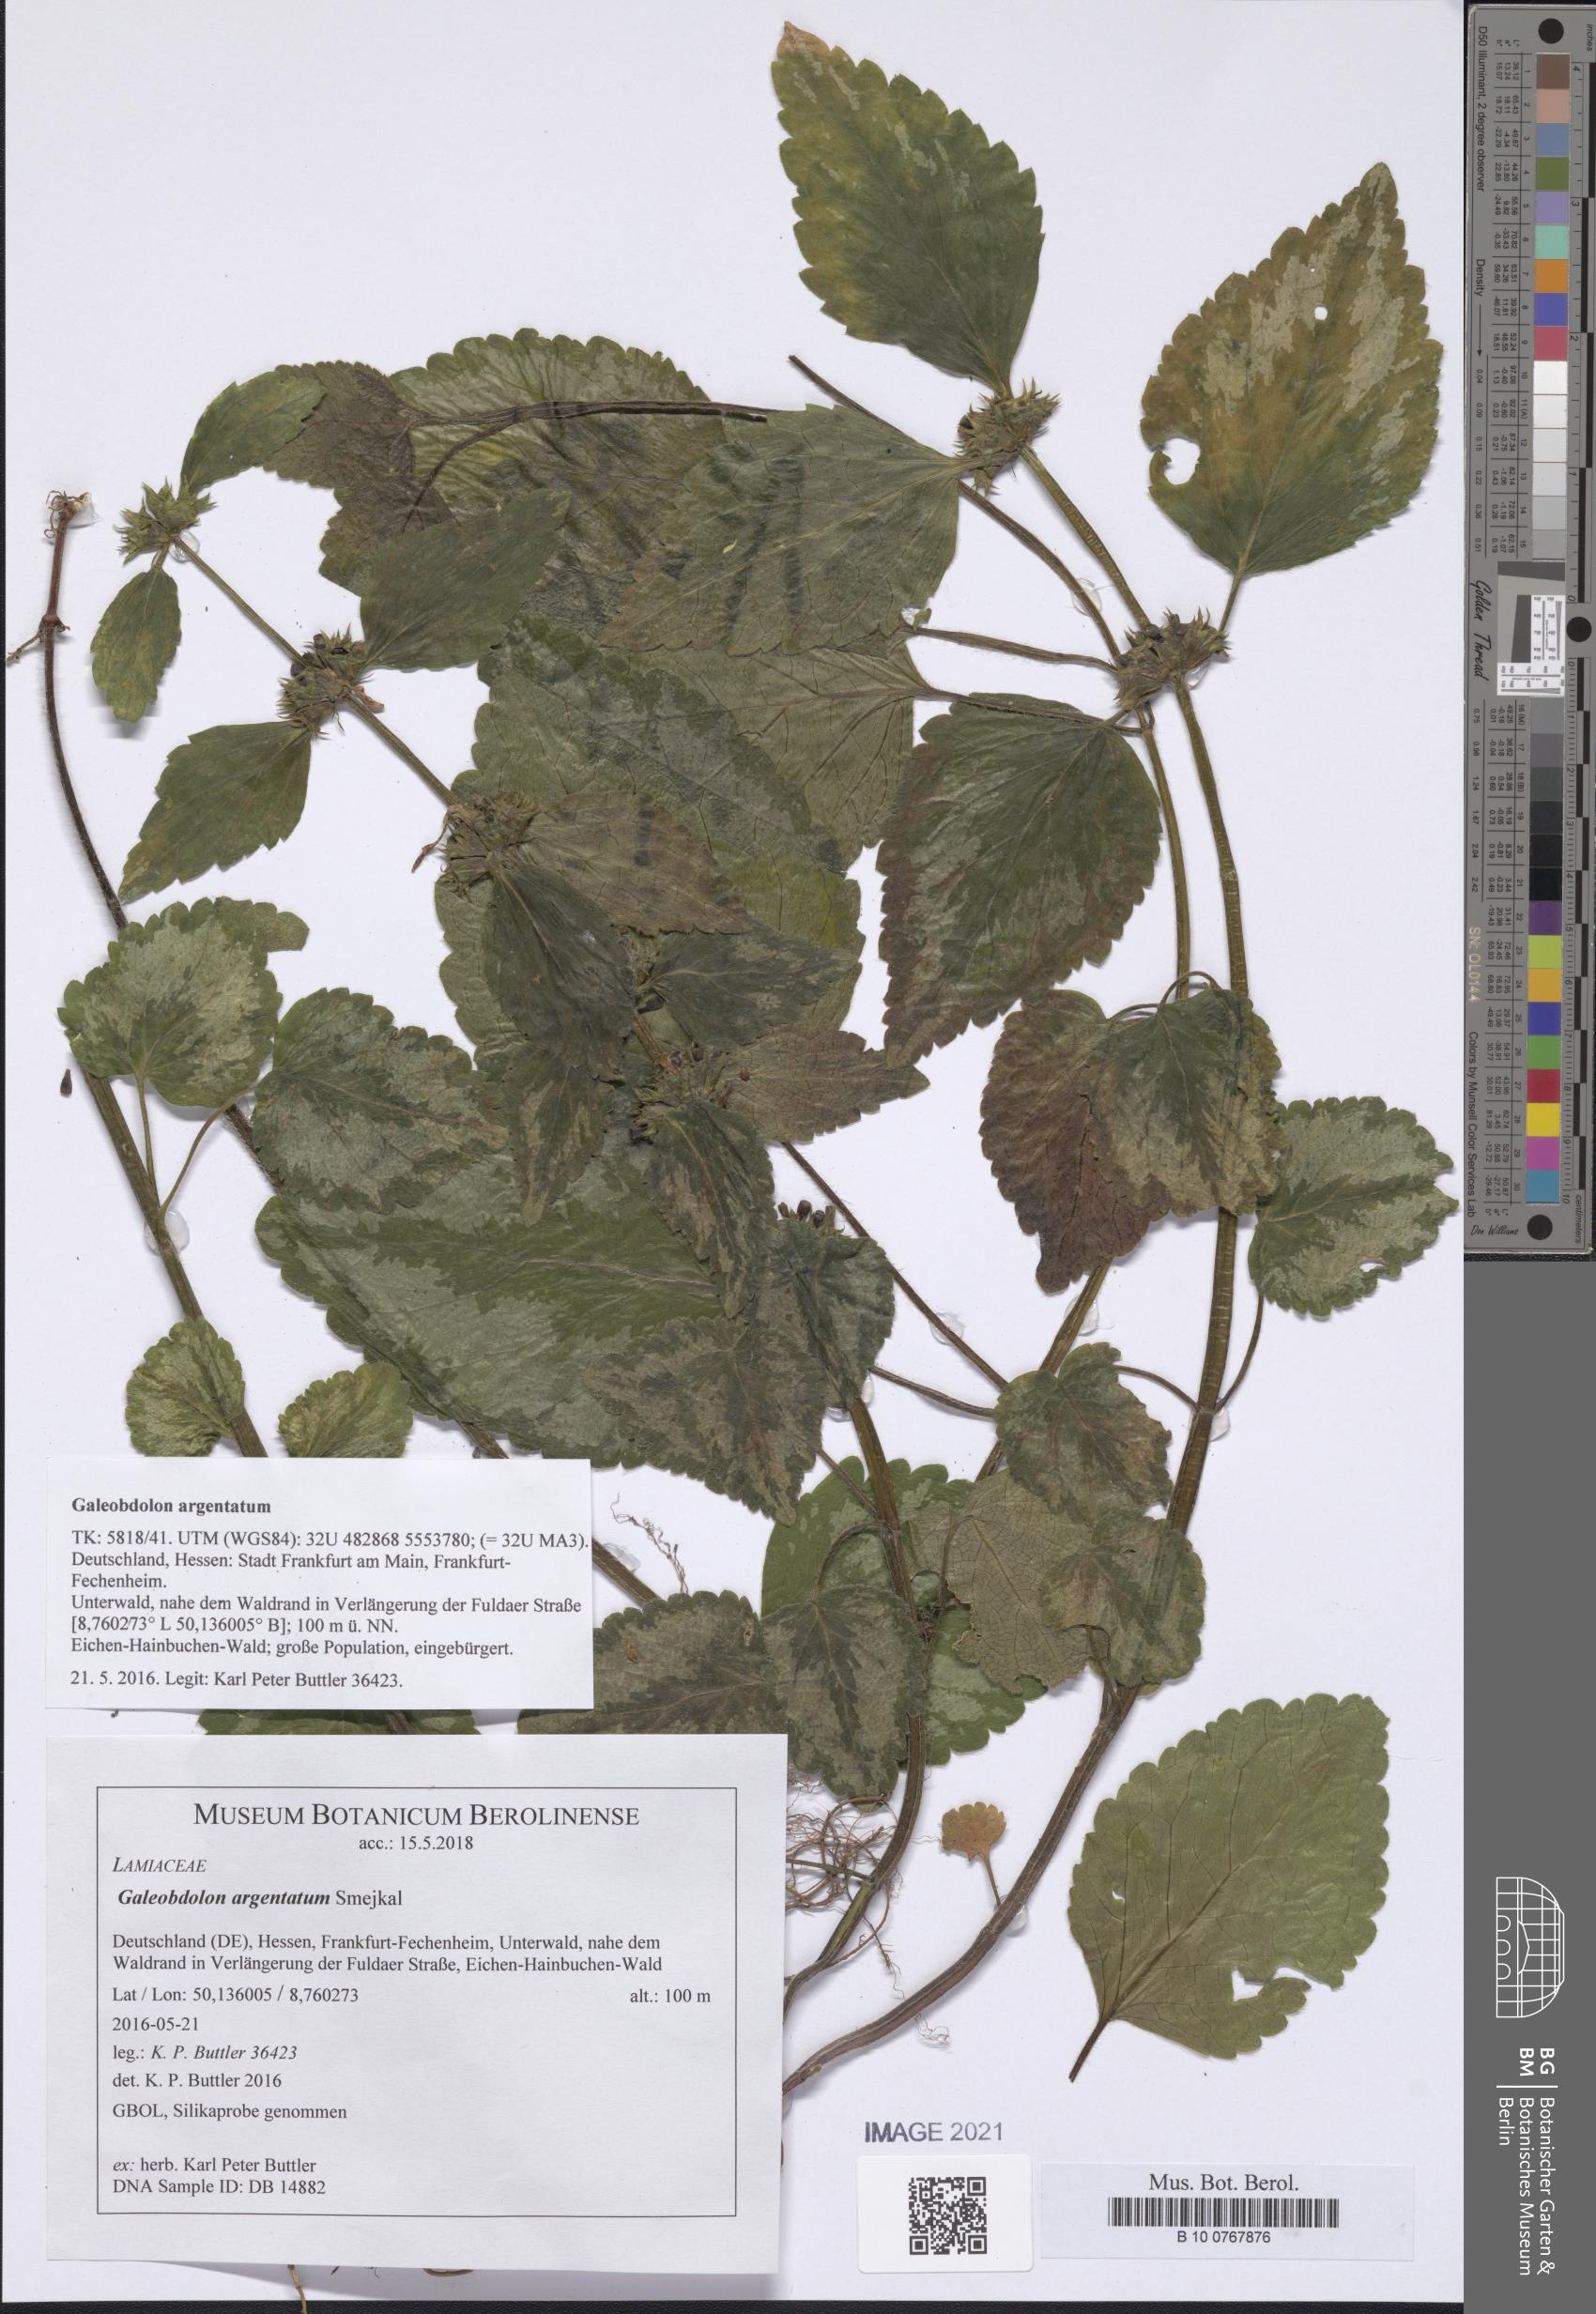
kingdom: Plantae
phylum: Tracheophyta
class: Magnoliopsida
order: Lamiales
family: Lamiaceae
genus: Lamium
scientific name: Lamium galeobdolon
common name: Yellow archangel
